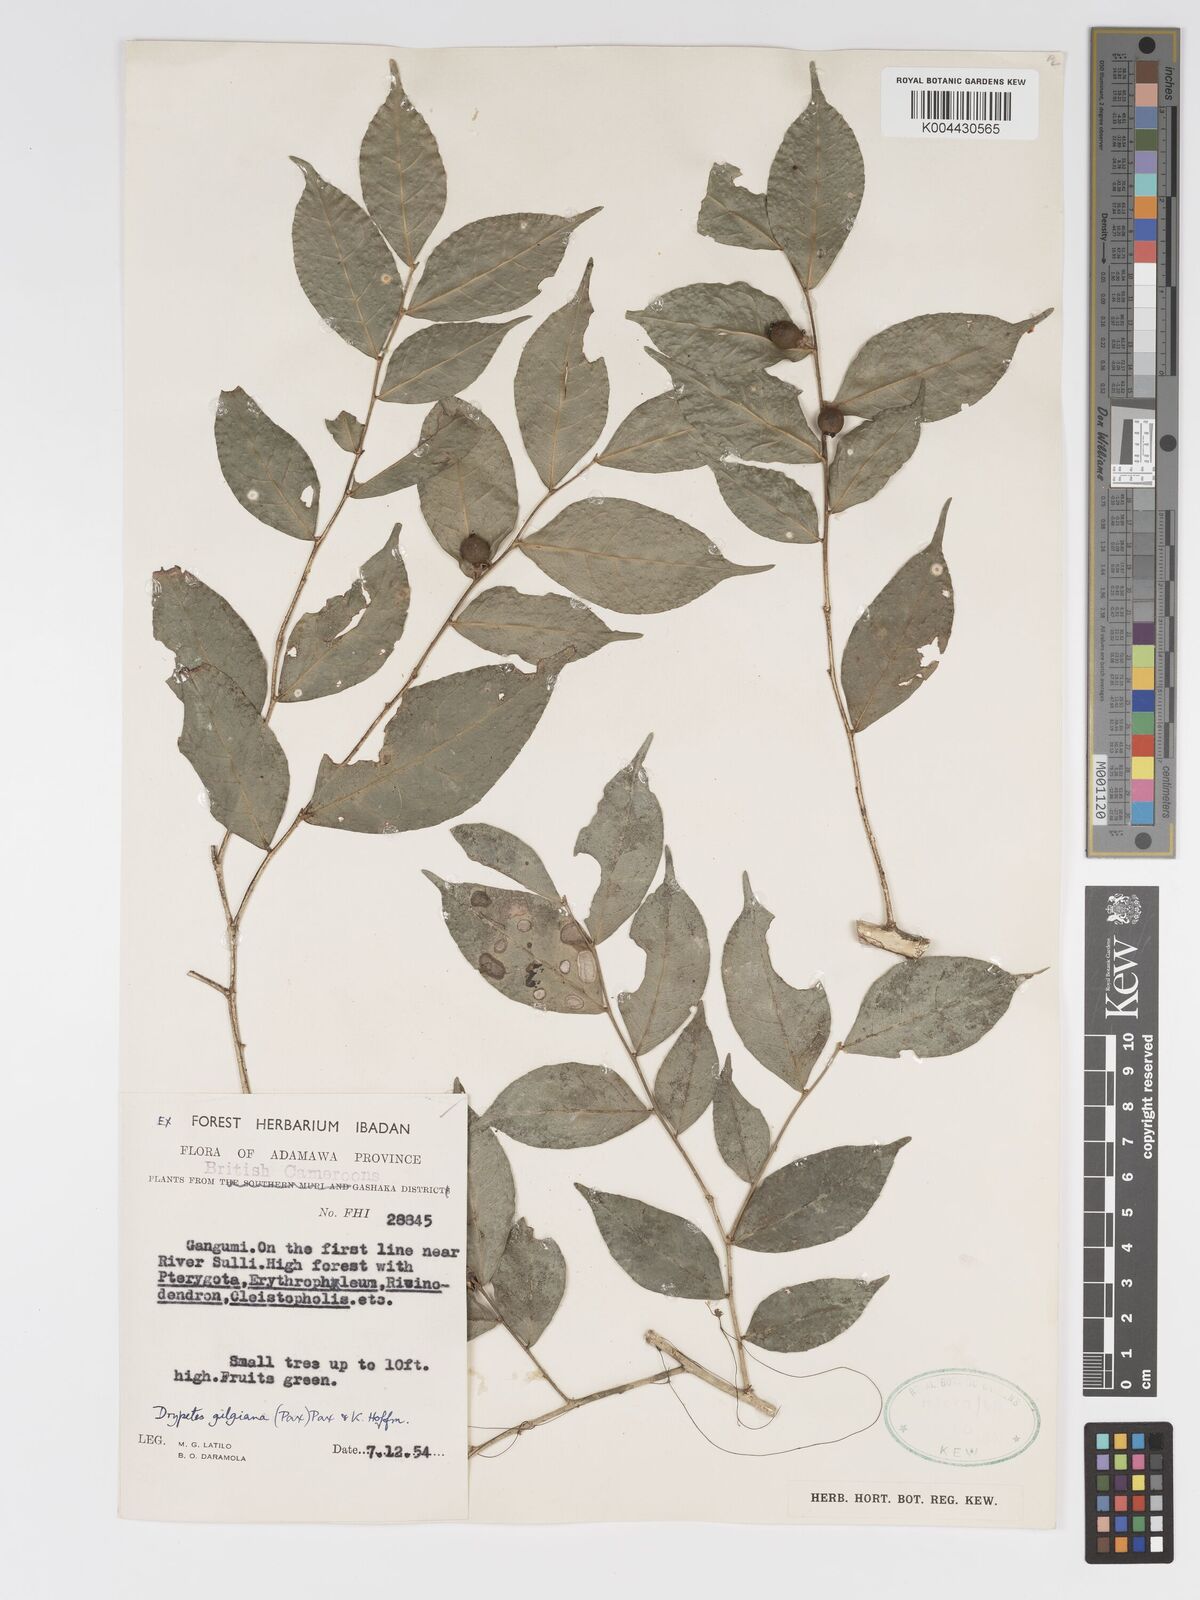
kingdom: Plantae
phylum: Tracheophyta
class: Magnoliopsida
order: Malpighiales
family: Putranjivaceae
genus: Drypetes
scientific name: Drypetes gilgiana
